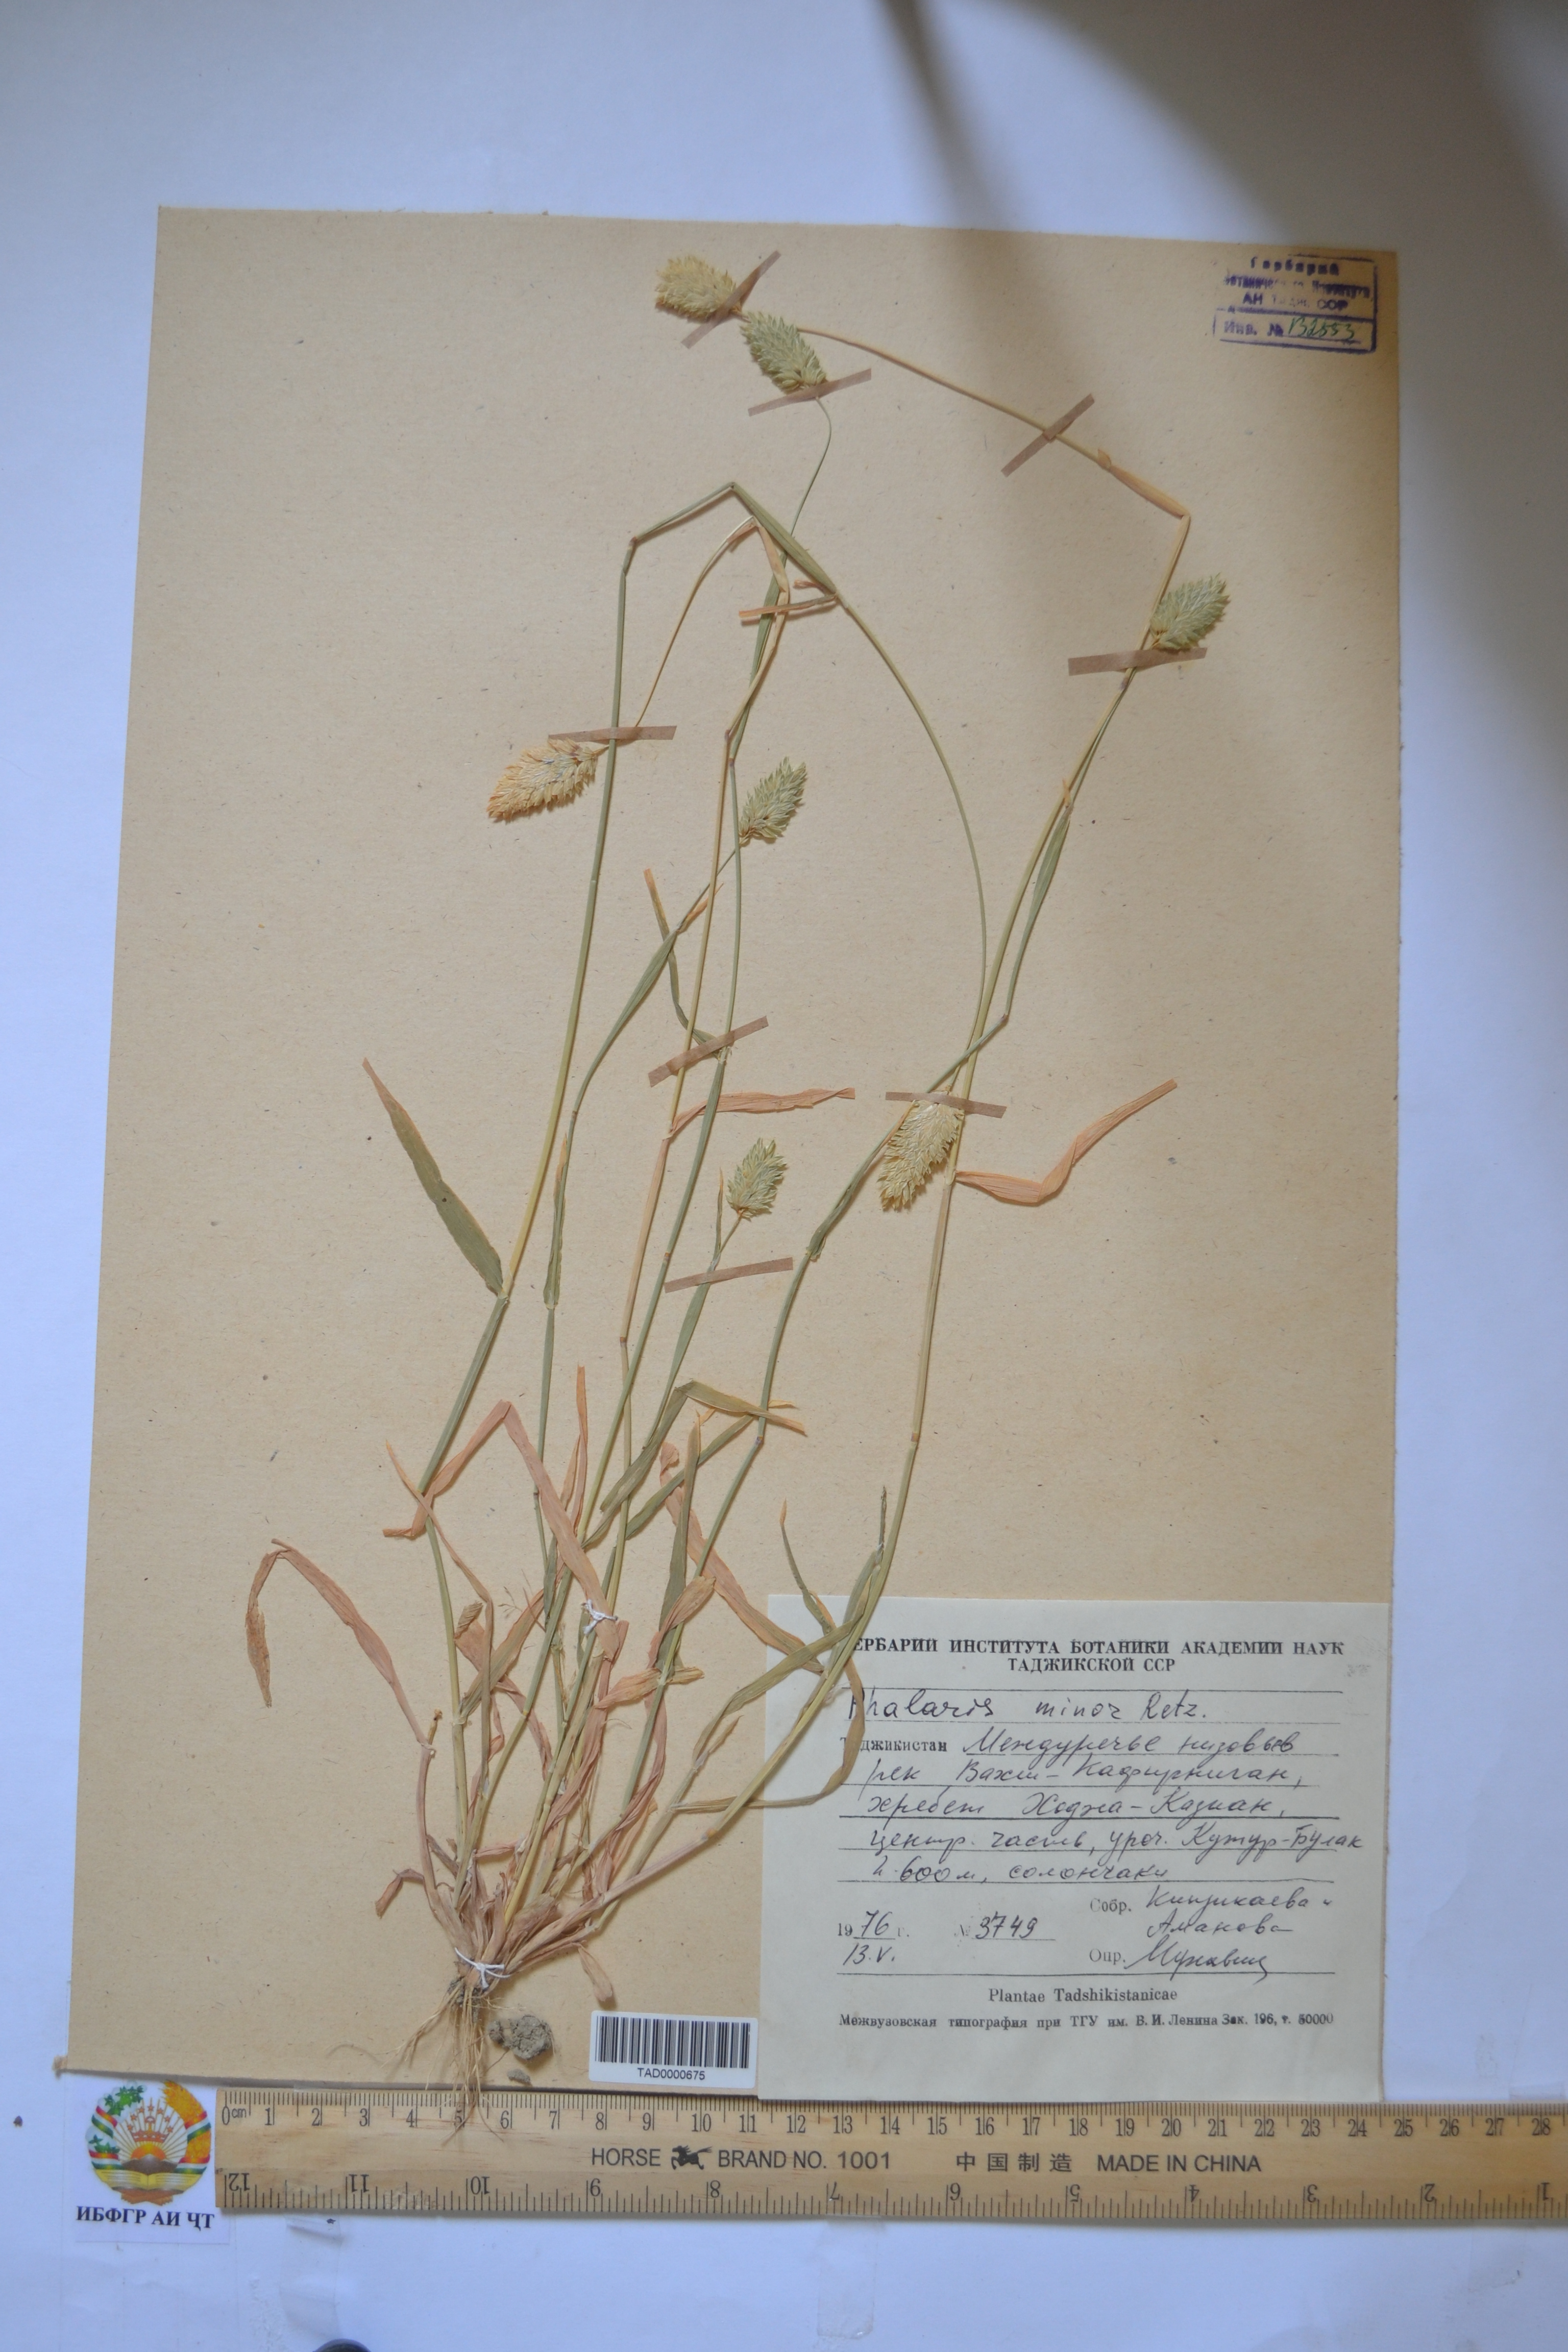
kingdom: Plantae
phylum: Tracheophyta
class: Liliopsida
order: Poales
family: Poaceae
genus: Oryza
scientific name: Oryza sativa
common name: Rice
